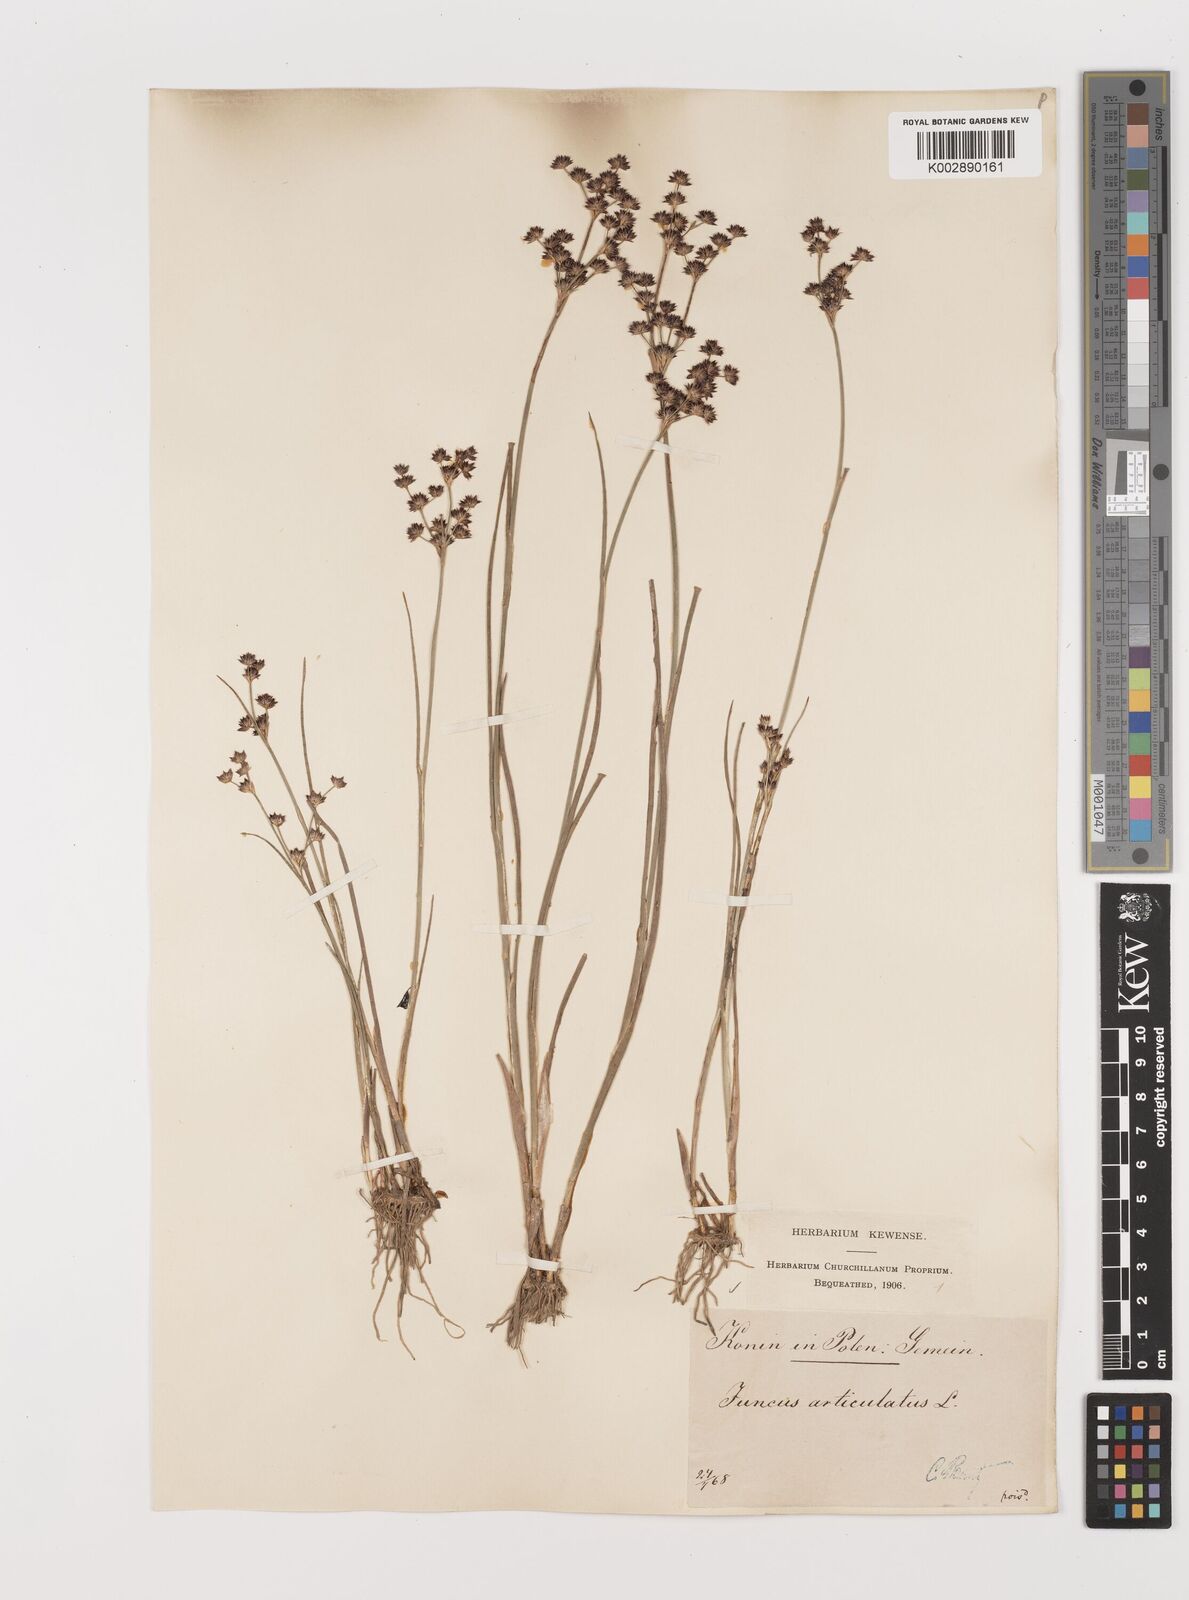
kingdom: Plantae
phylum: Tracheophyta
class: Liliopsida
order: Poales
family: Juncaceae
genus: Juncus
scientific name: Juncus articulatus
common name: Jointed rush
